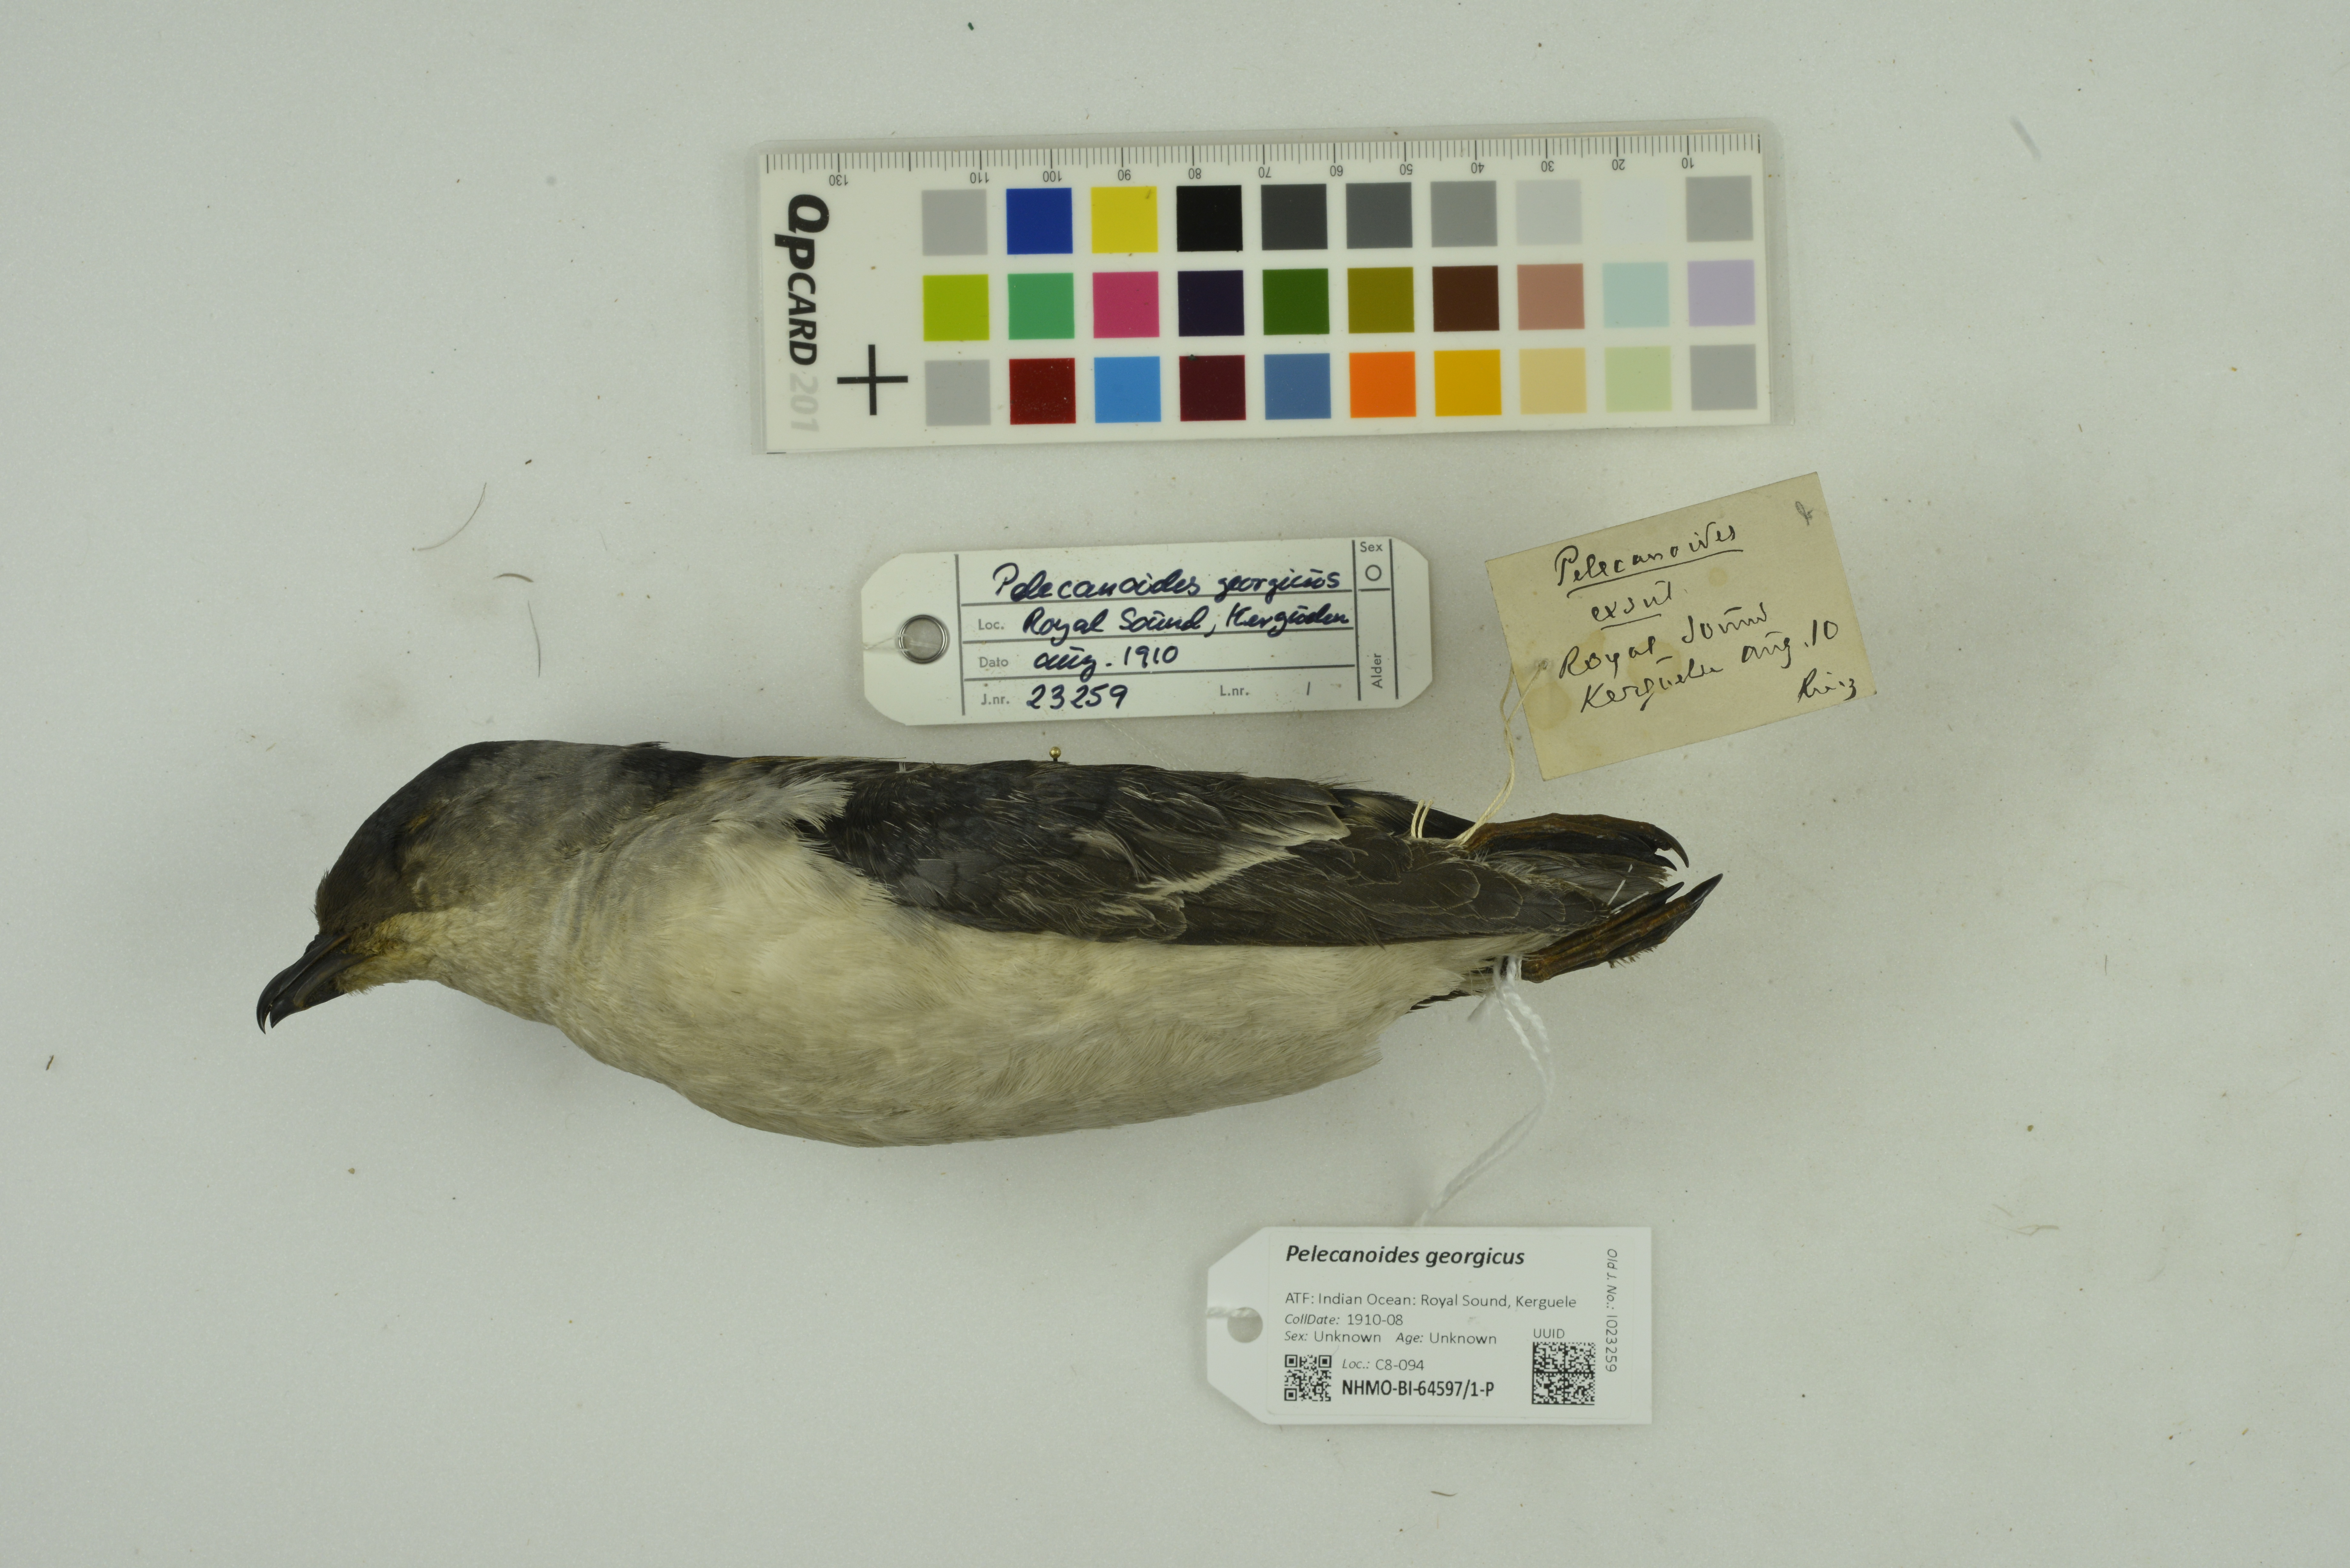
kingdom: Animalia
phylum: Chordata
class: Aves
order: Procellariiformes
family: Pelecanoididae
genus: Pelecanoides
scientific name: Pelecanoides georgicus
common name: South georgia diving-petrel
